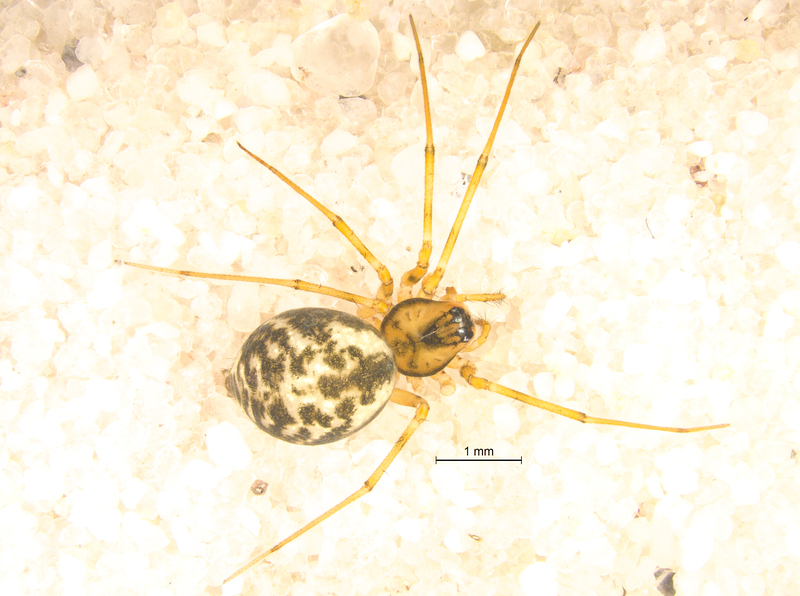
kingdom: Animalia
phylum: Arthropoda
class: Arachnida
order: Araneae
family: Linyphiidae
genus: Poeciloneta
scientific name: Poeciloneta variegata
